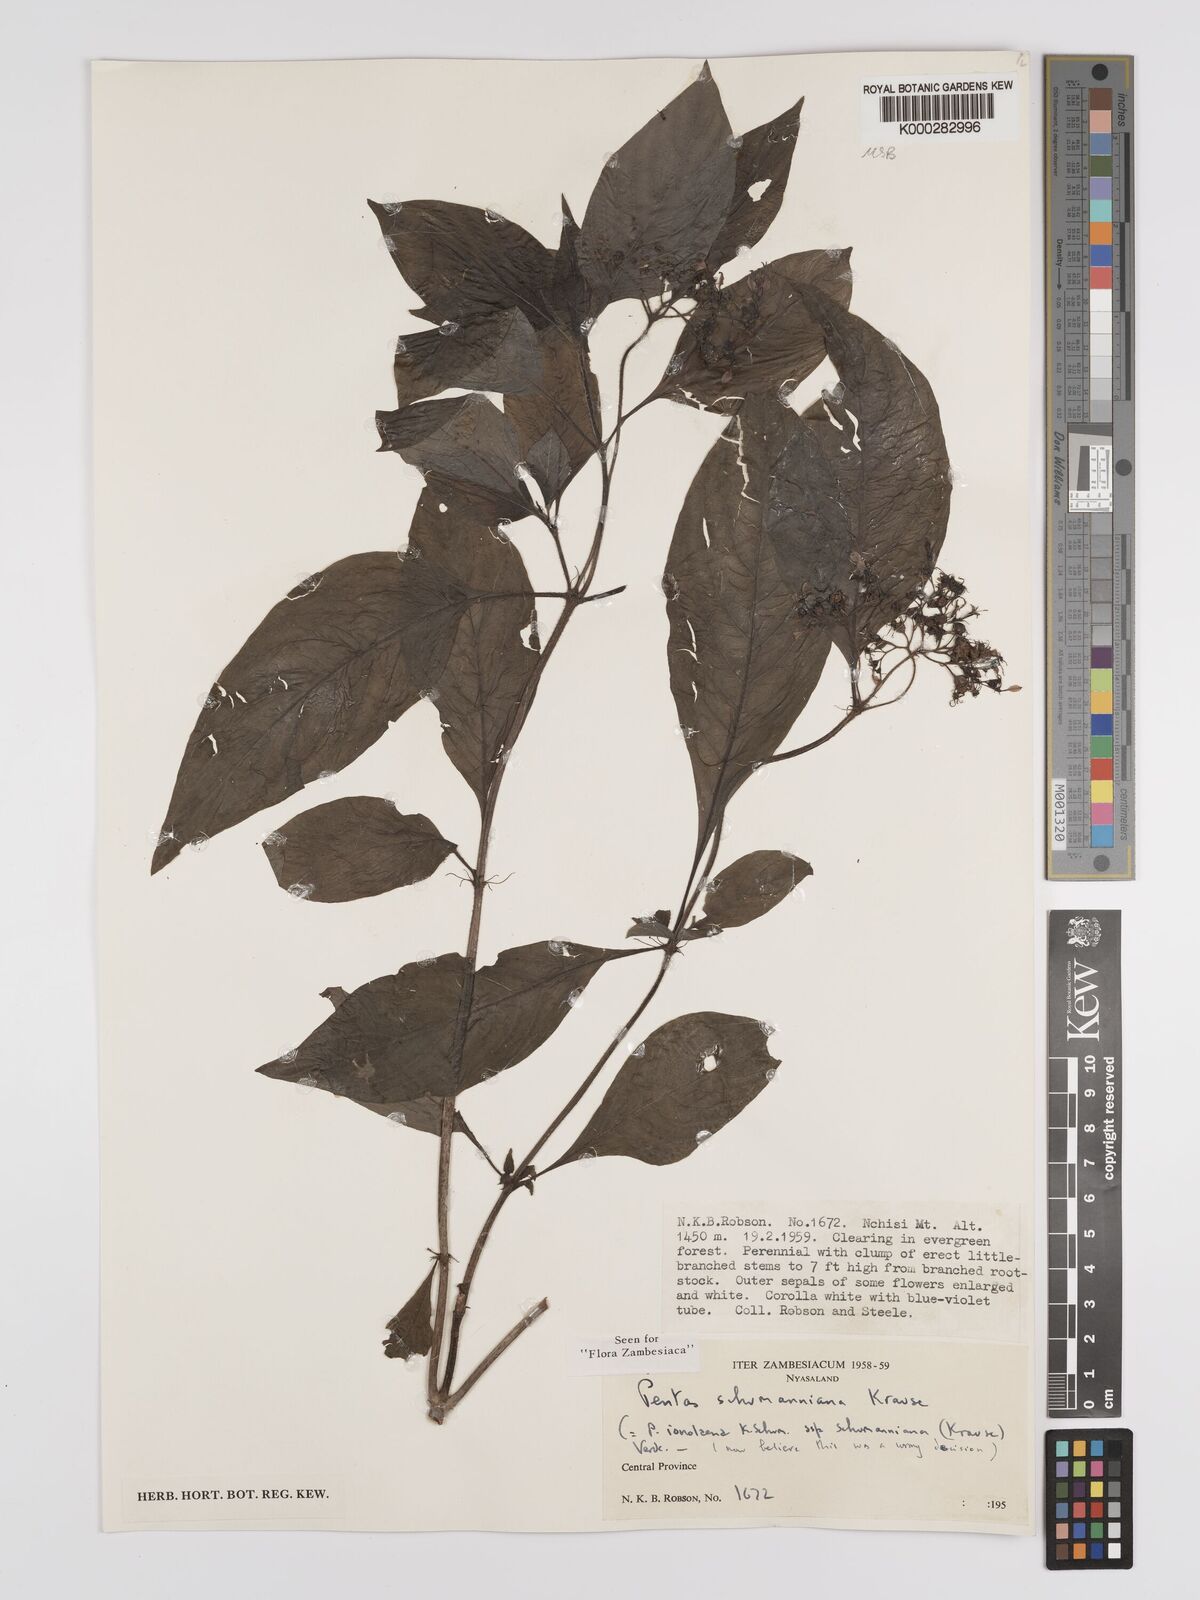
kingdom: Plantae
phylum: Tracheophyta
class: Magnoliopsida
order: Gentianales
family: Rubiaceae
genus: Phyllopentas
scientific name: Phyllopentas schumanniana
